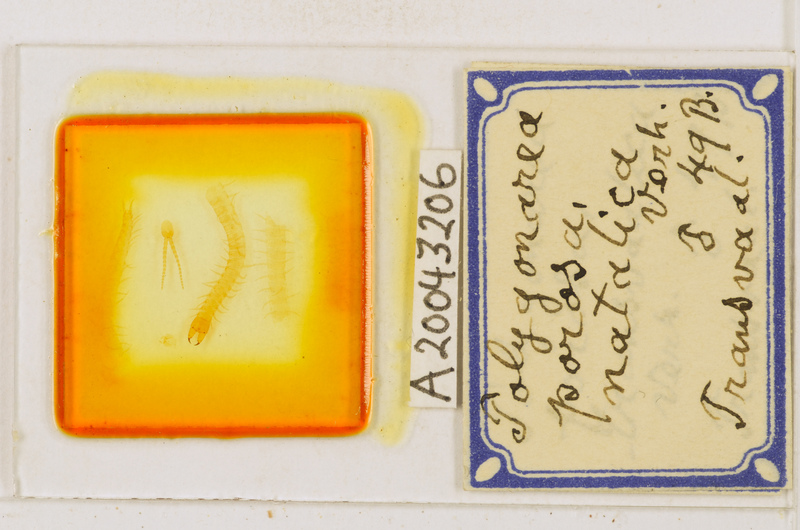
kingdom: Animalia
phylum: Arthropoda
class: Chilopoda
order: Geophilomorpha
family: Geophilidae
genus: Polygonarea
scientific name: Polygonarea africana
